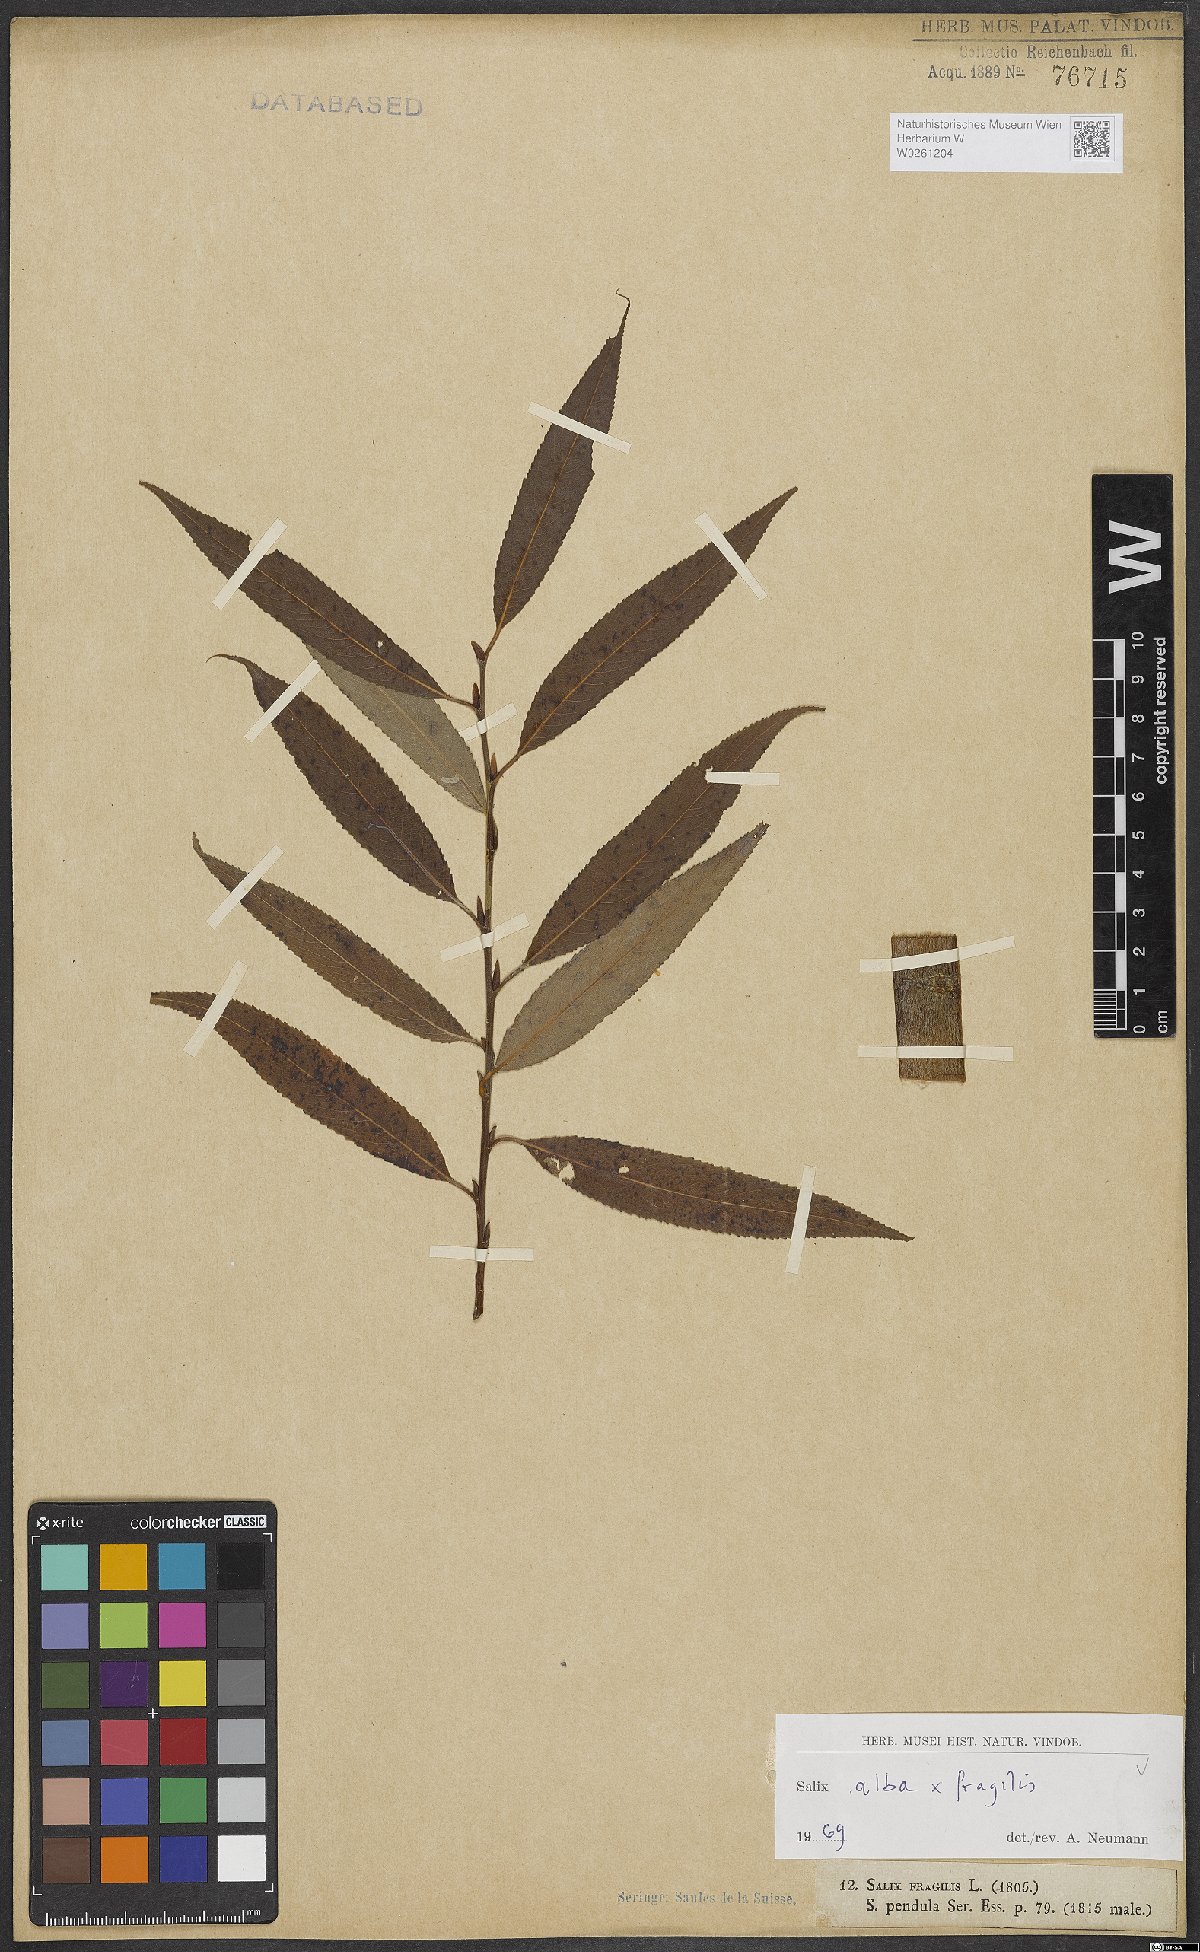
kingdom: Plantae
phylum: Tracheophyta
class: Magnoliopsida
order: Malpighiales
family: Salicaceae
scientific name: Salicaceae
